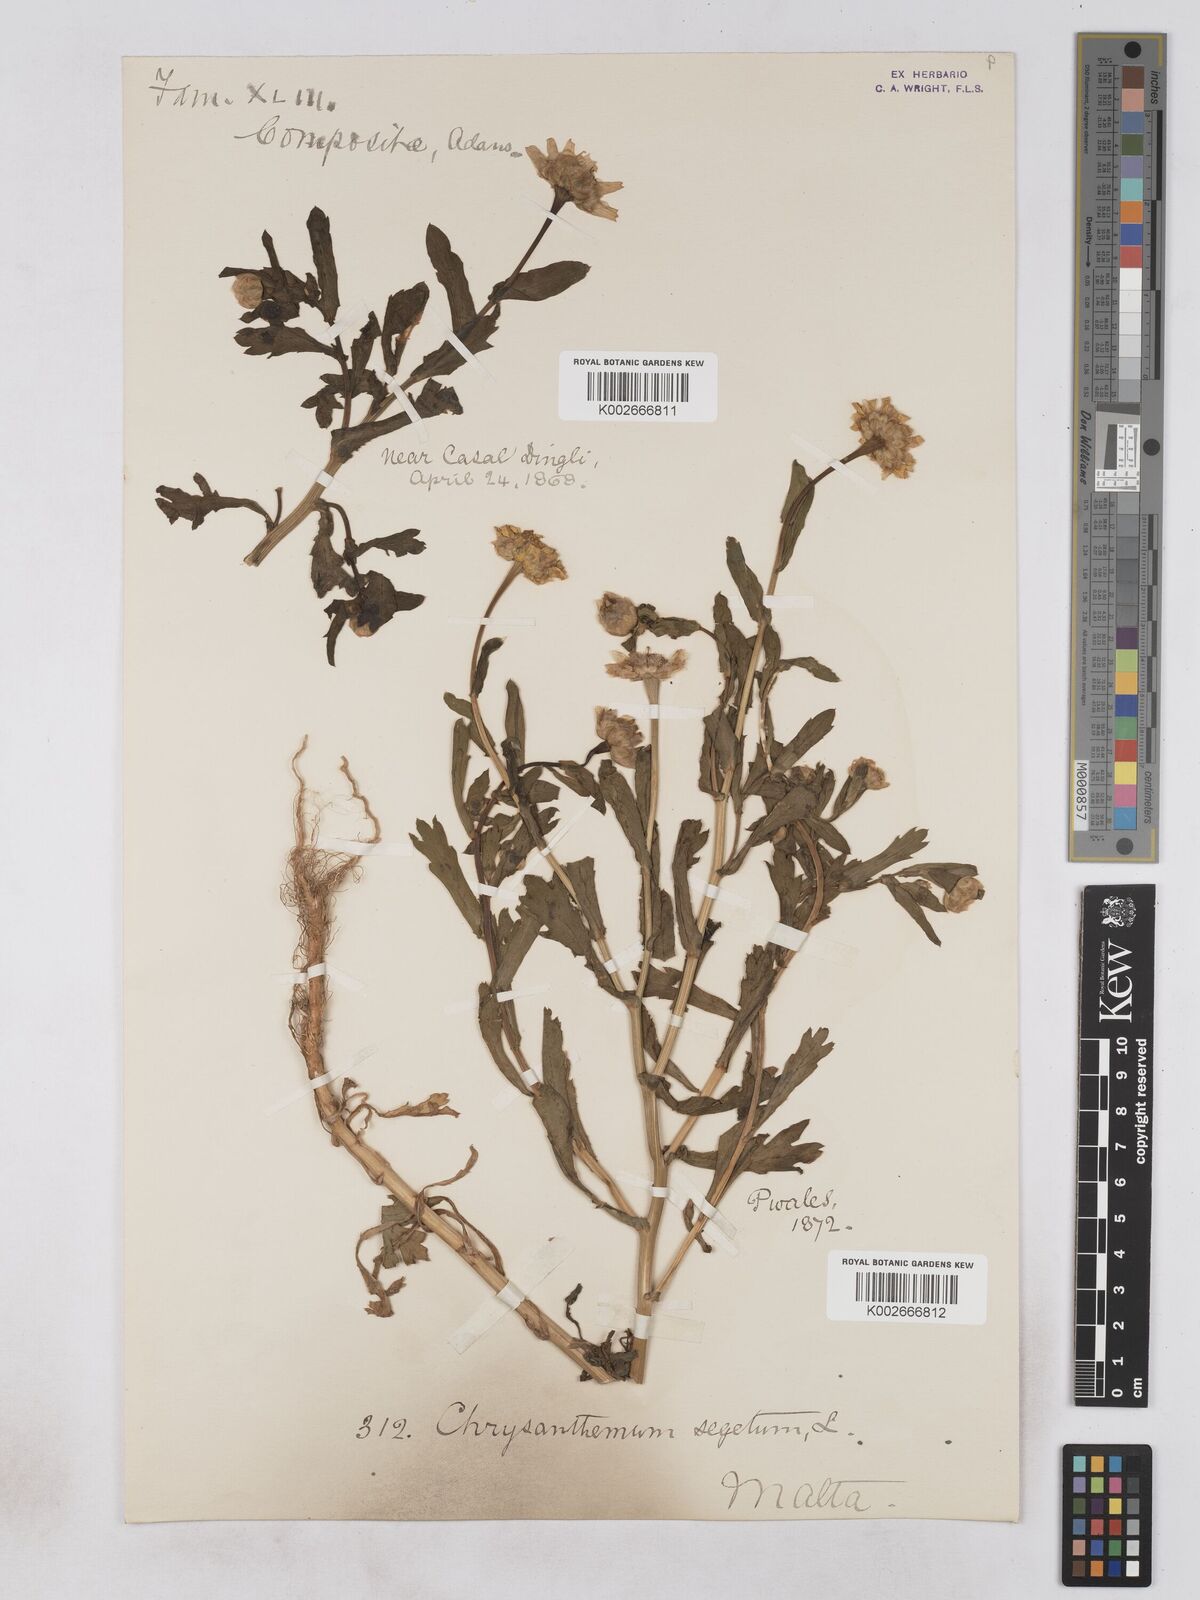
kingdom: Plantae
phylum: Tracheophyta
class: Magnoliopsida
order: Asterales
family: Asteraceae
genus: Glebionis
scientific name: Glebionis segetum
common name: Corndaisy
